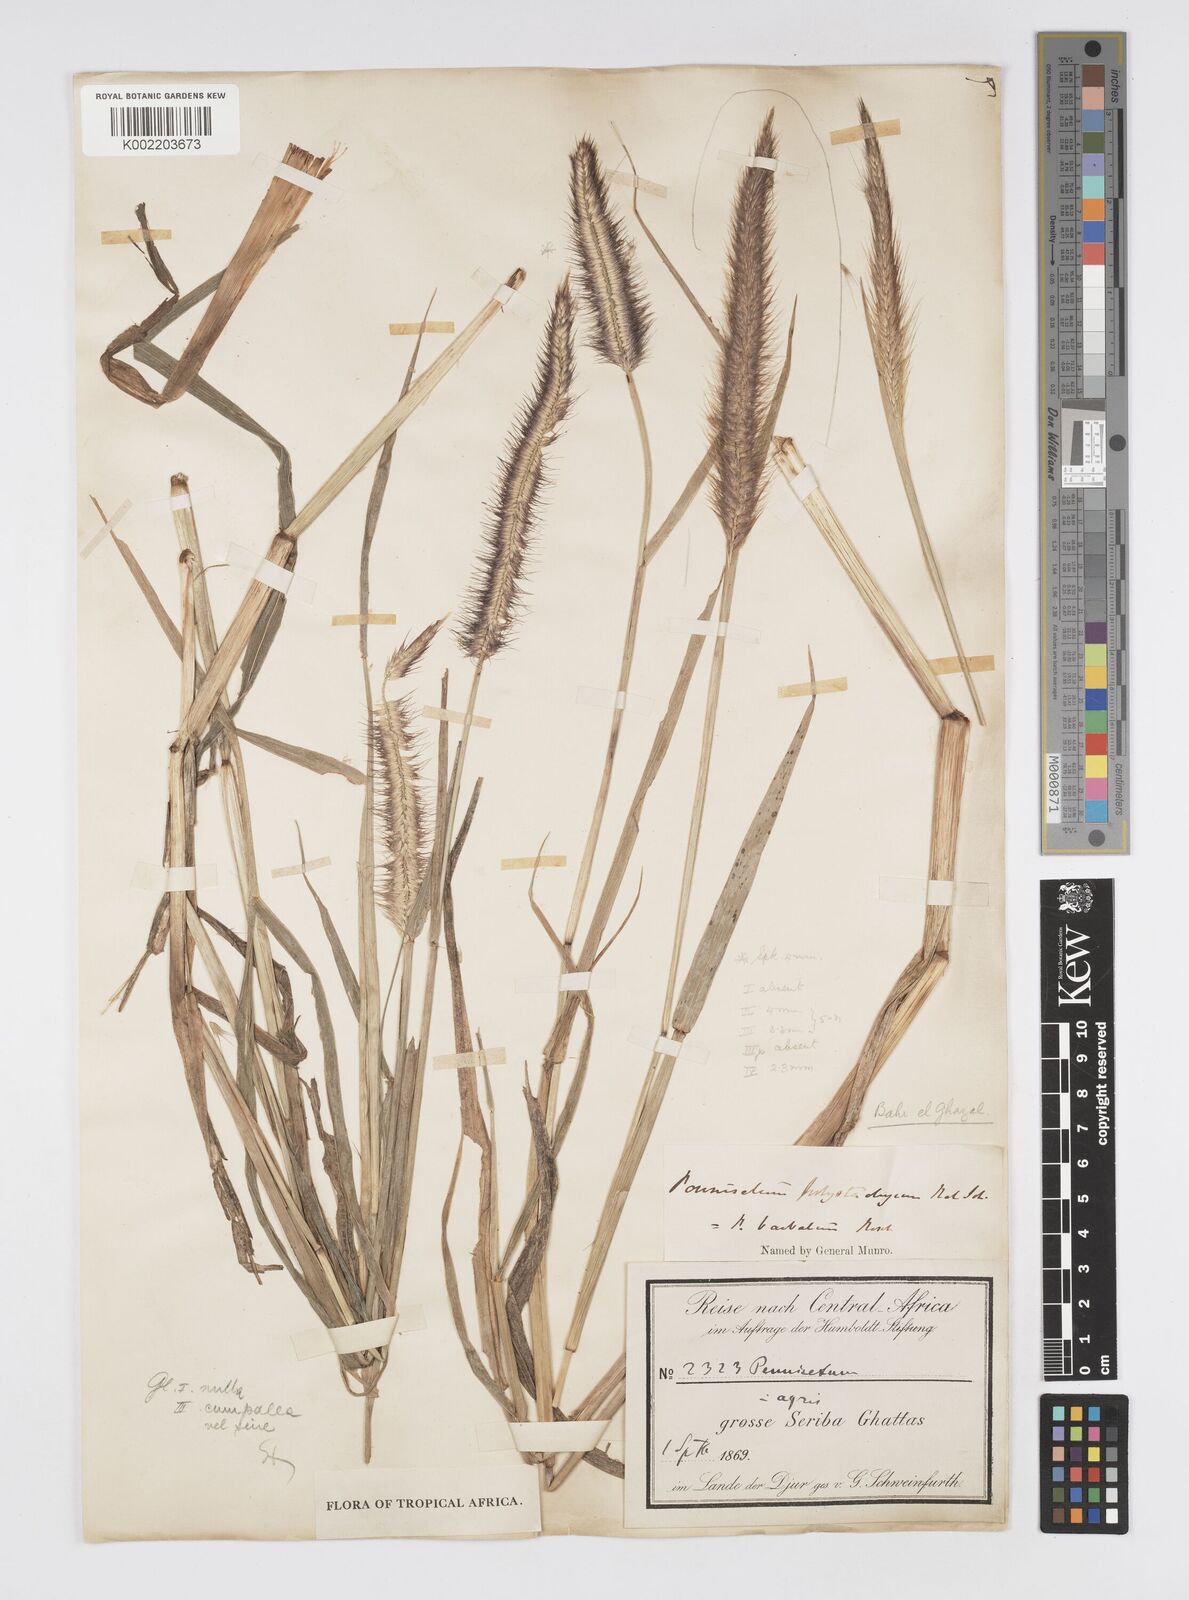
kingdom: Plantae
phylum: Tracheophyta
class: Liliopsida
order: Poales
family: Poaceae
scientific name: Poaceae
